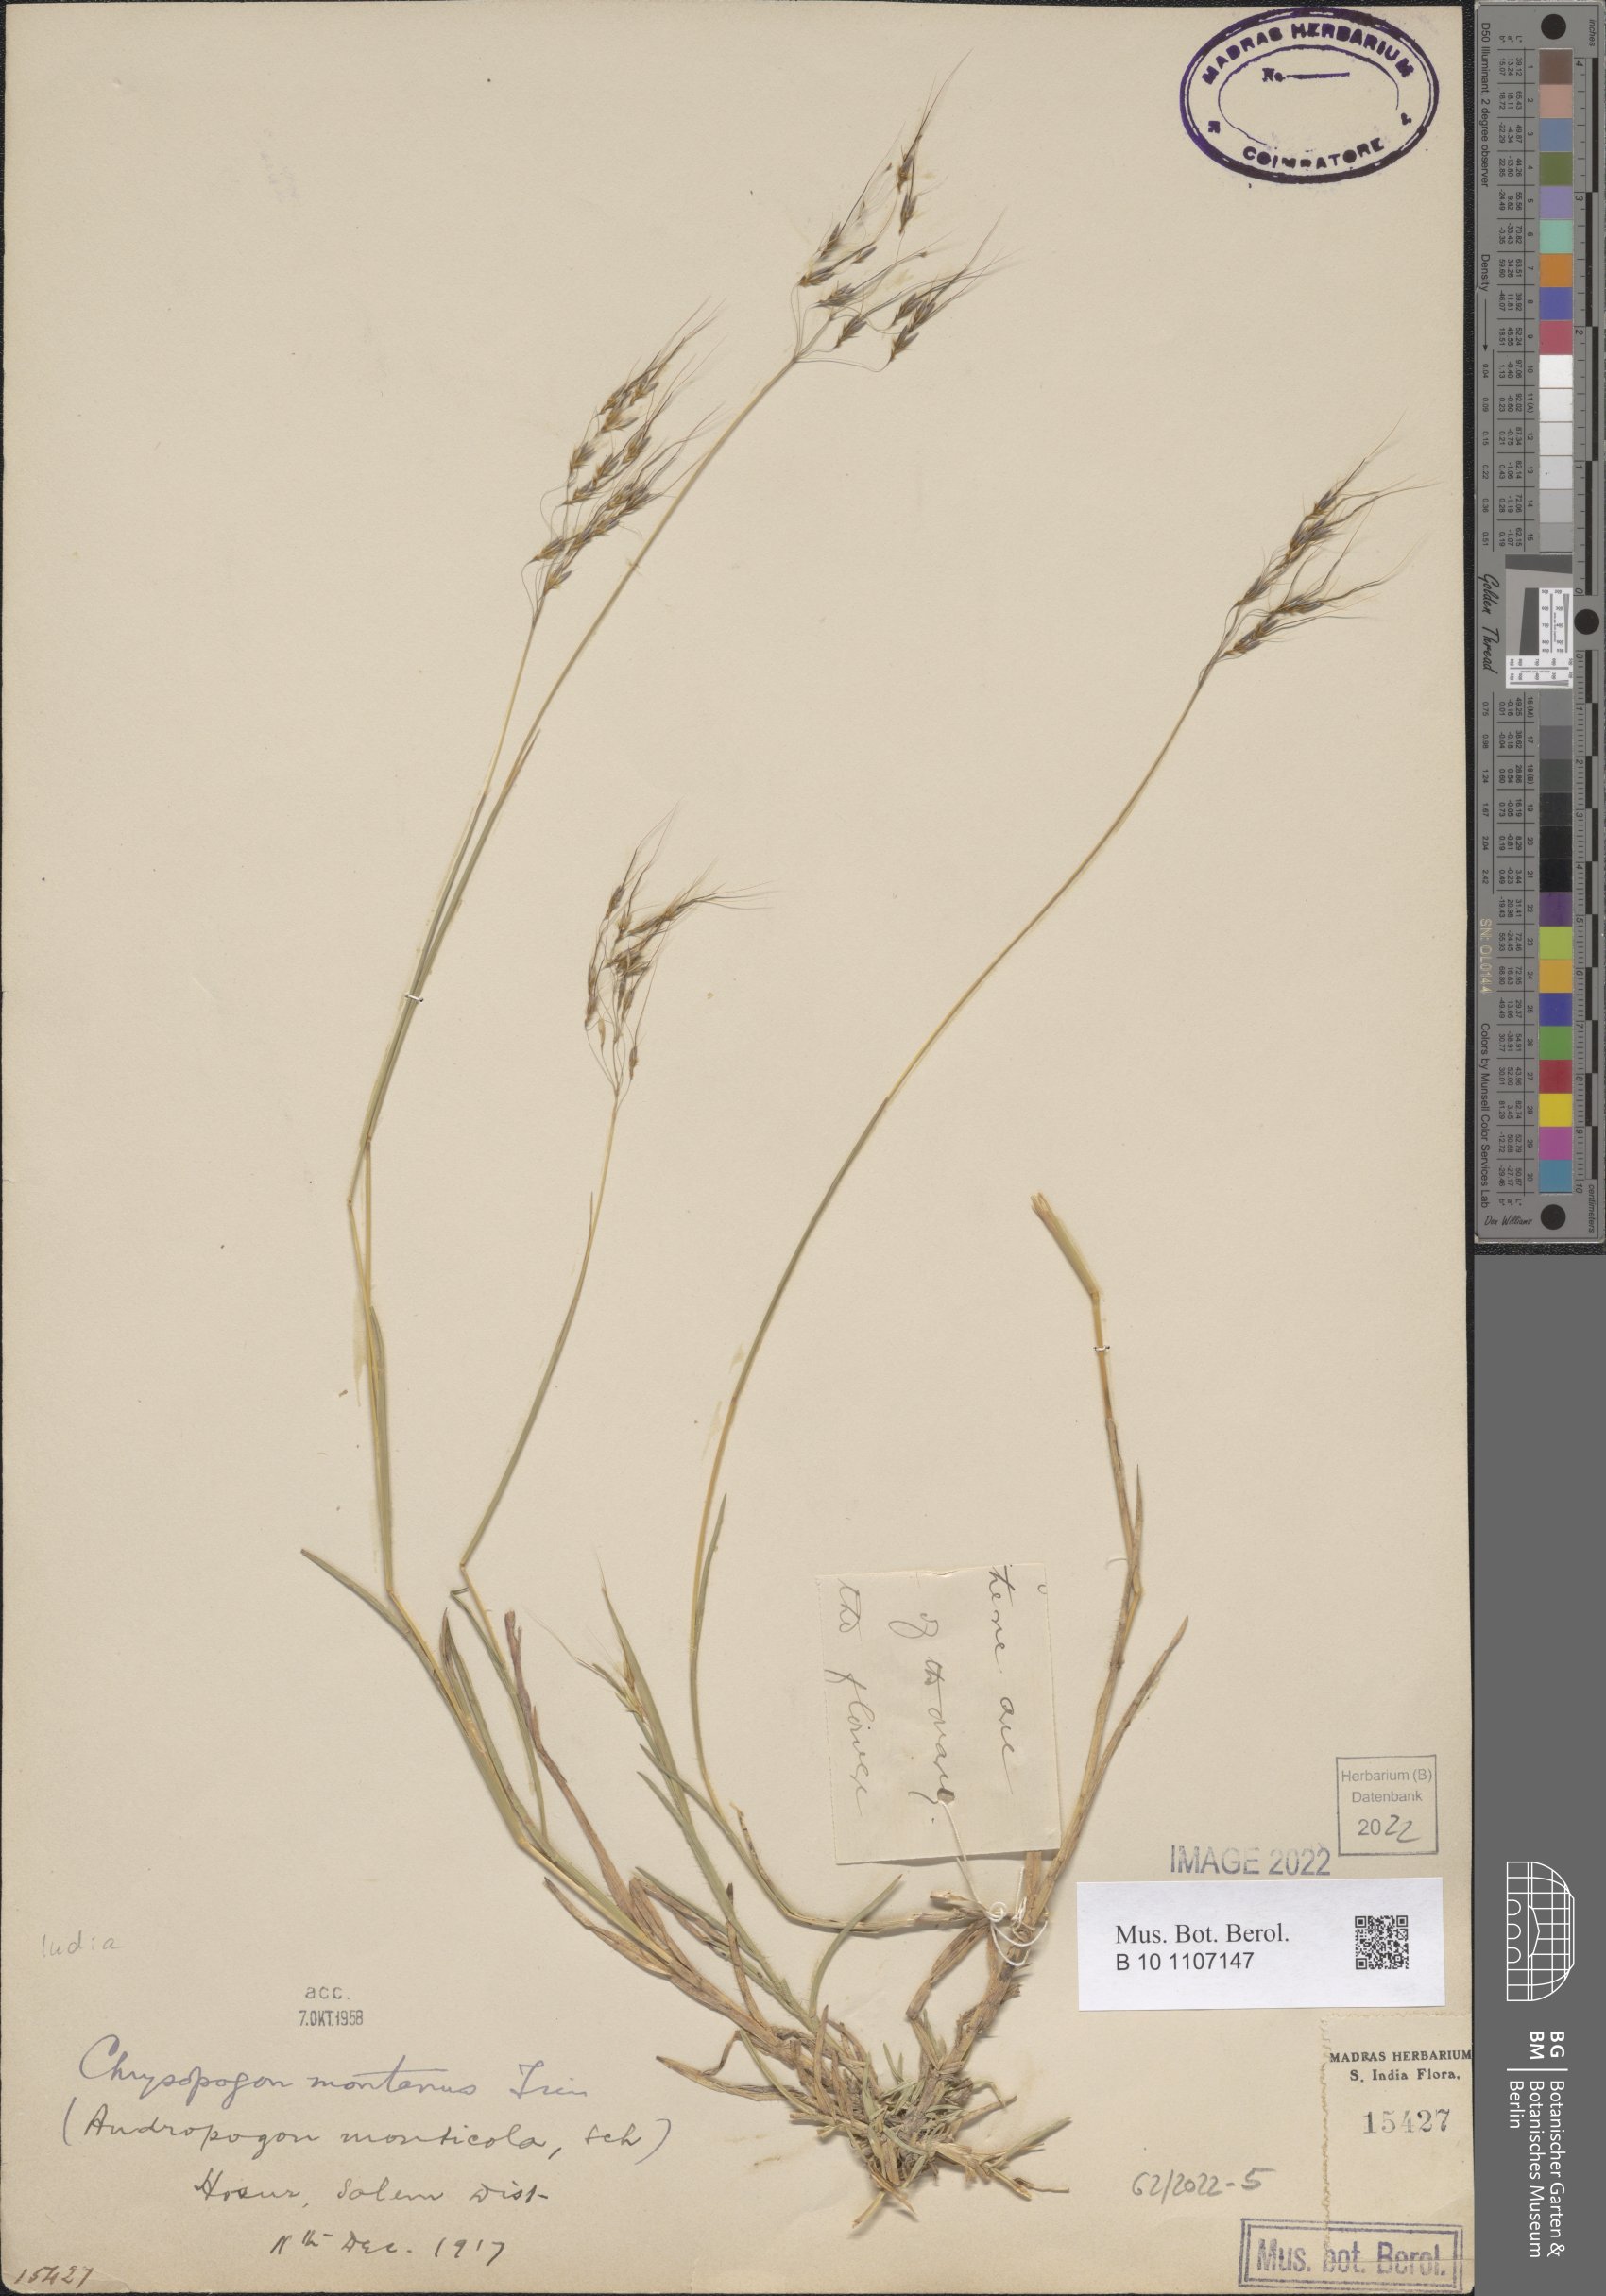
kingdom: Plantae
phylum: Tracheophyta
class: Liliopsida
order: Poales
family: Poaceae
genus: Chrysopogon
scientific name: Chrysopogon fulvus
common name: Red false beardgrass
